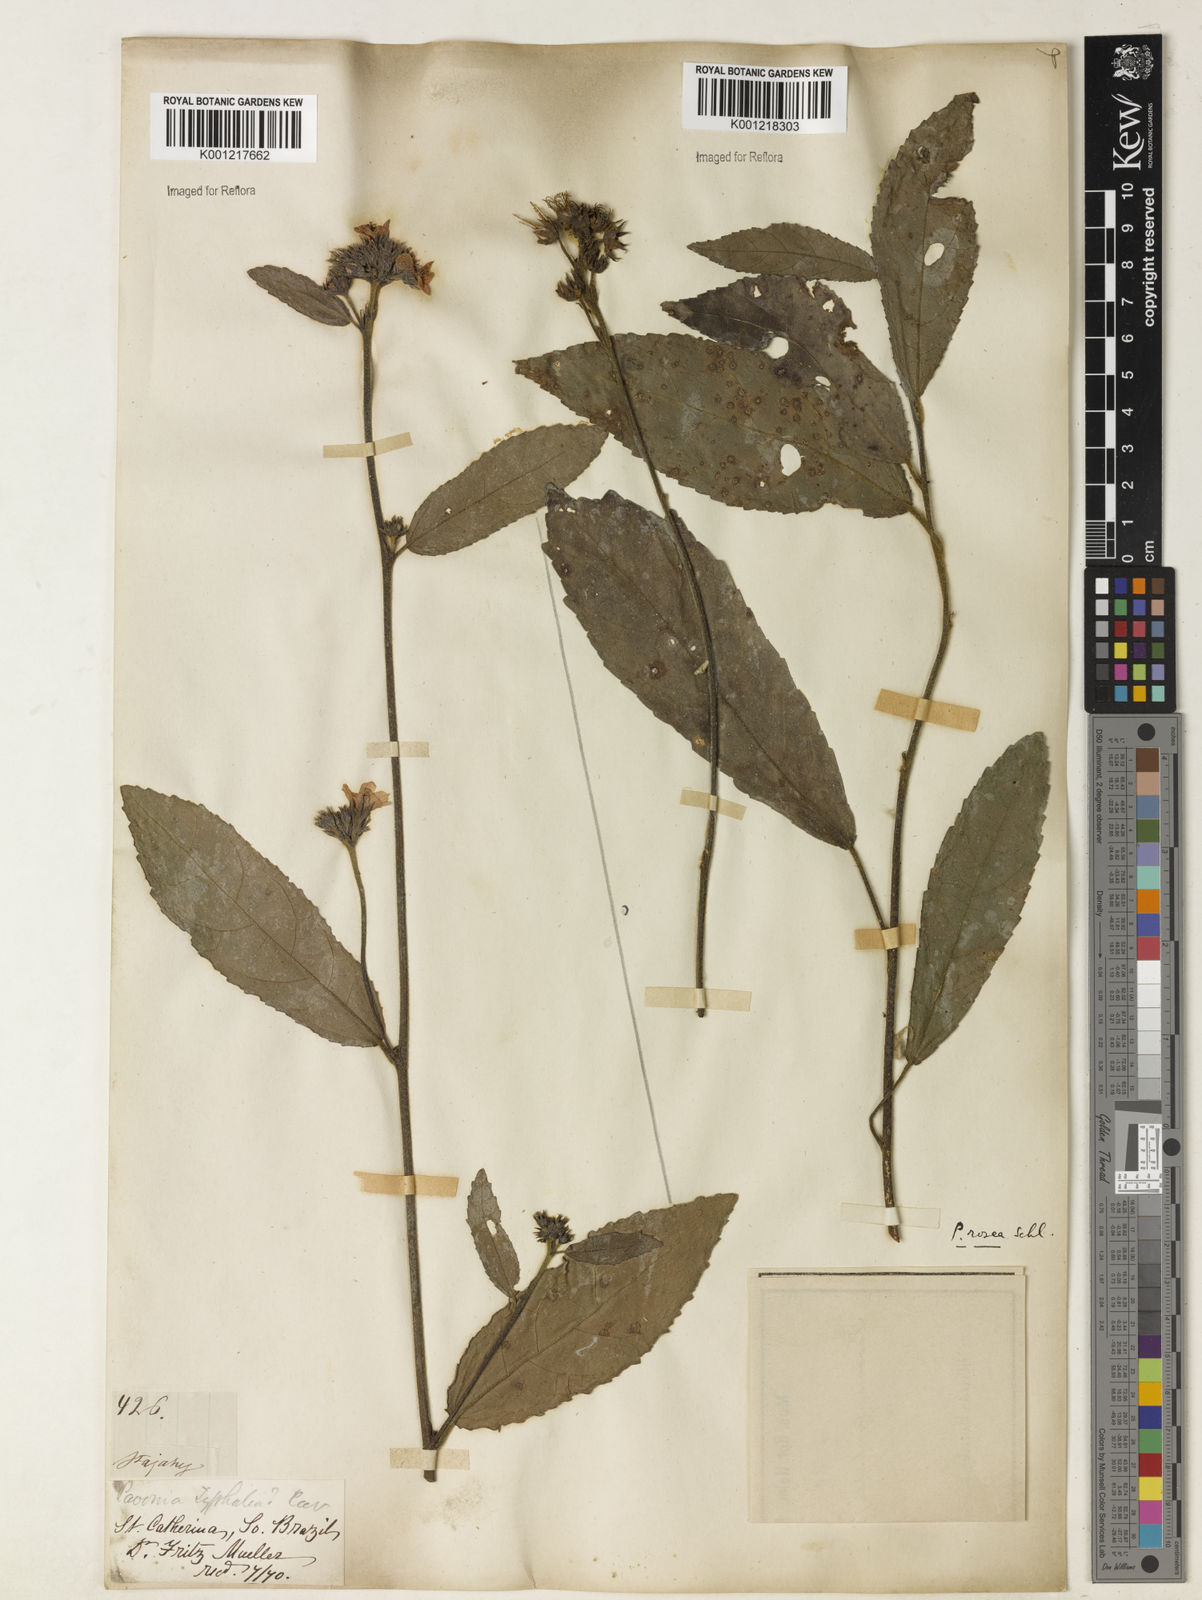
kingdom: Plantae
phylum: Tracheophyta
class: Magnoliopsida
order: Malvales
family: Malvaceae
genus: Pavonia
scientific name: Pavonia schiedeana
